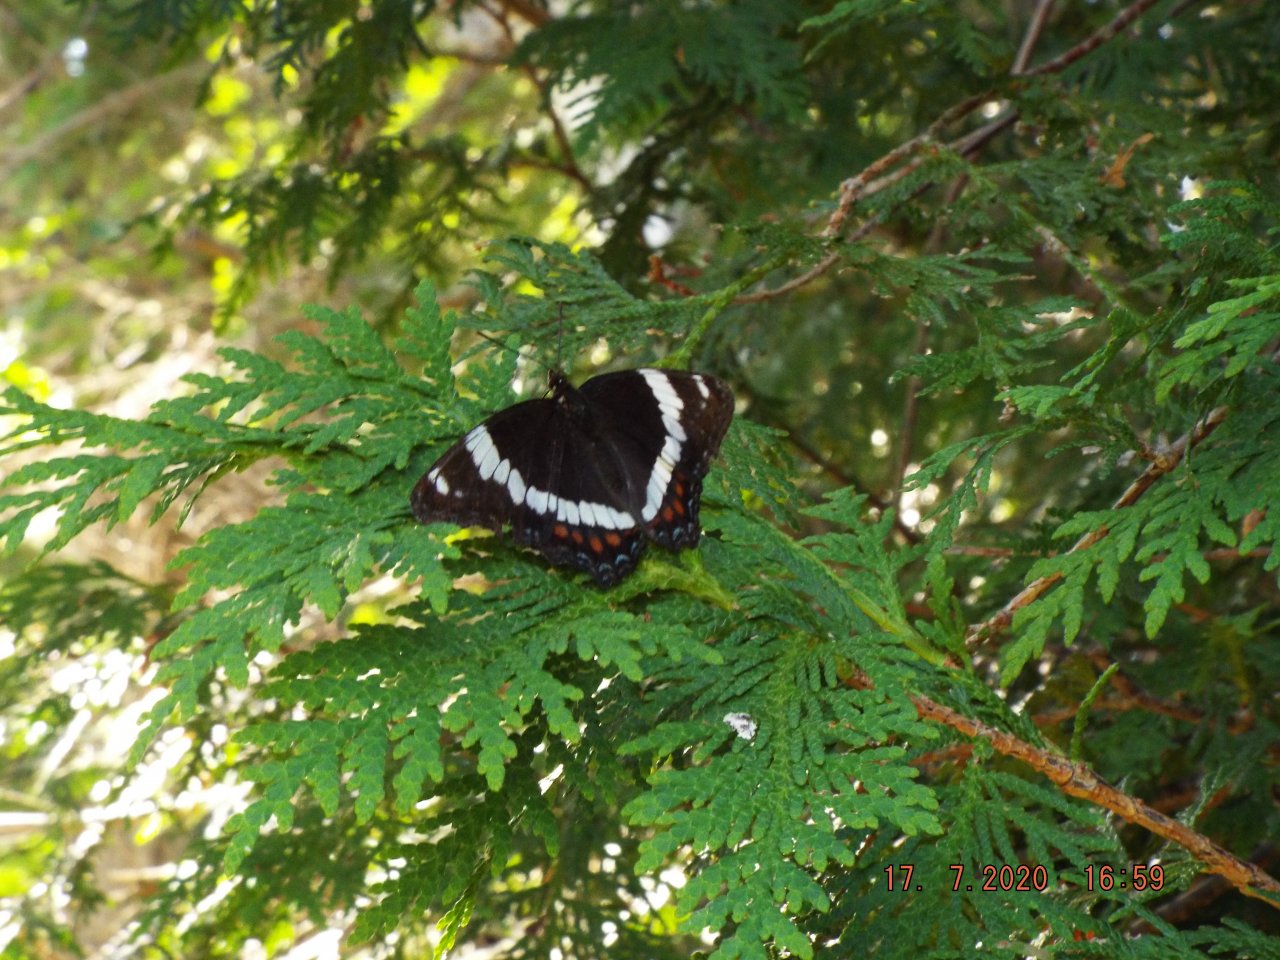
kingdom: Animalia
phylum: Arthropoda
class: Insecta
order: Lepidoptera
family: Nymphalidae
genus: Limenitis
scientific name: Limenitis arthemis
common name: Red-spotted Admiral
